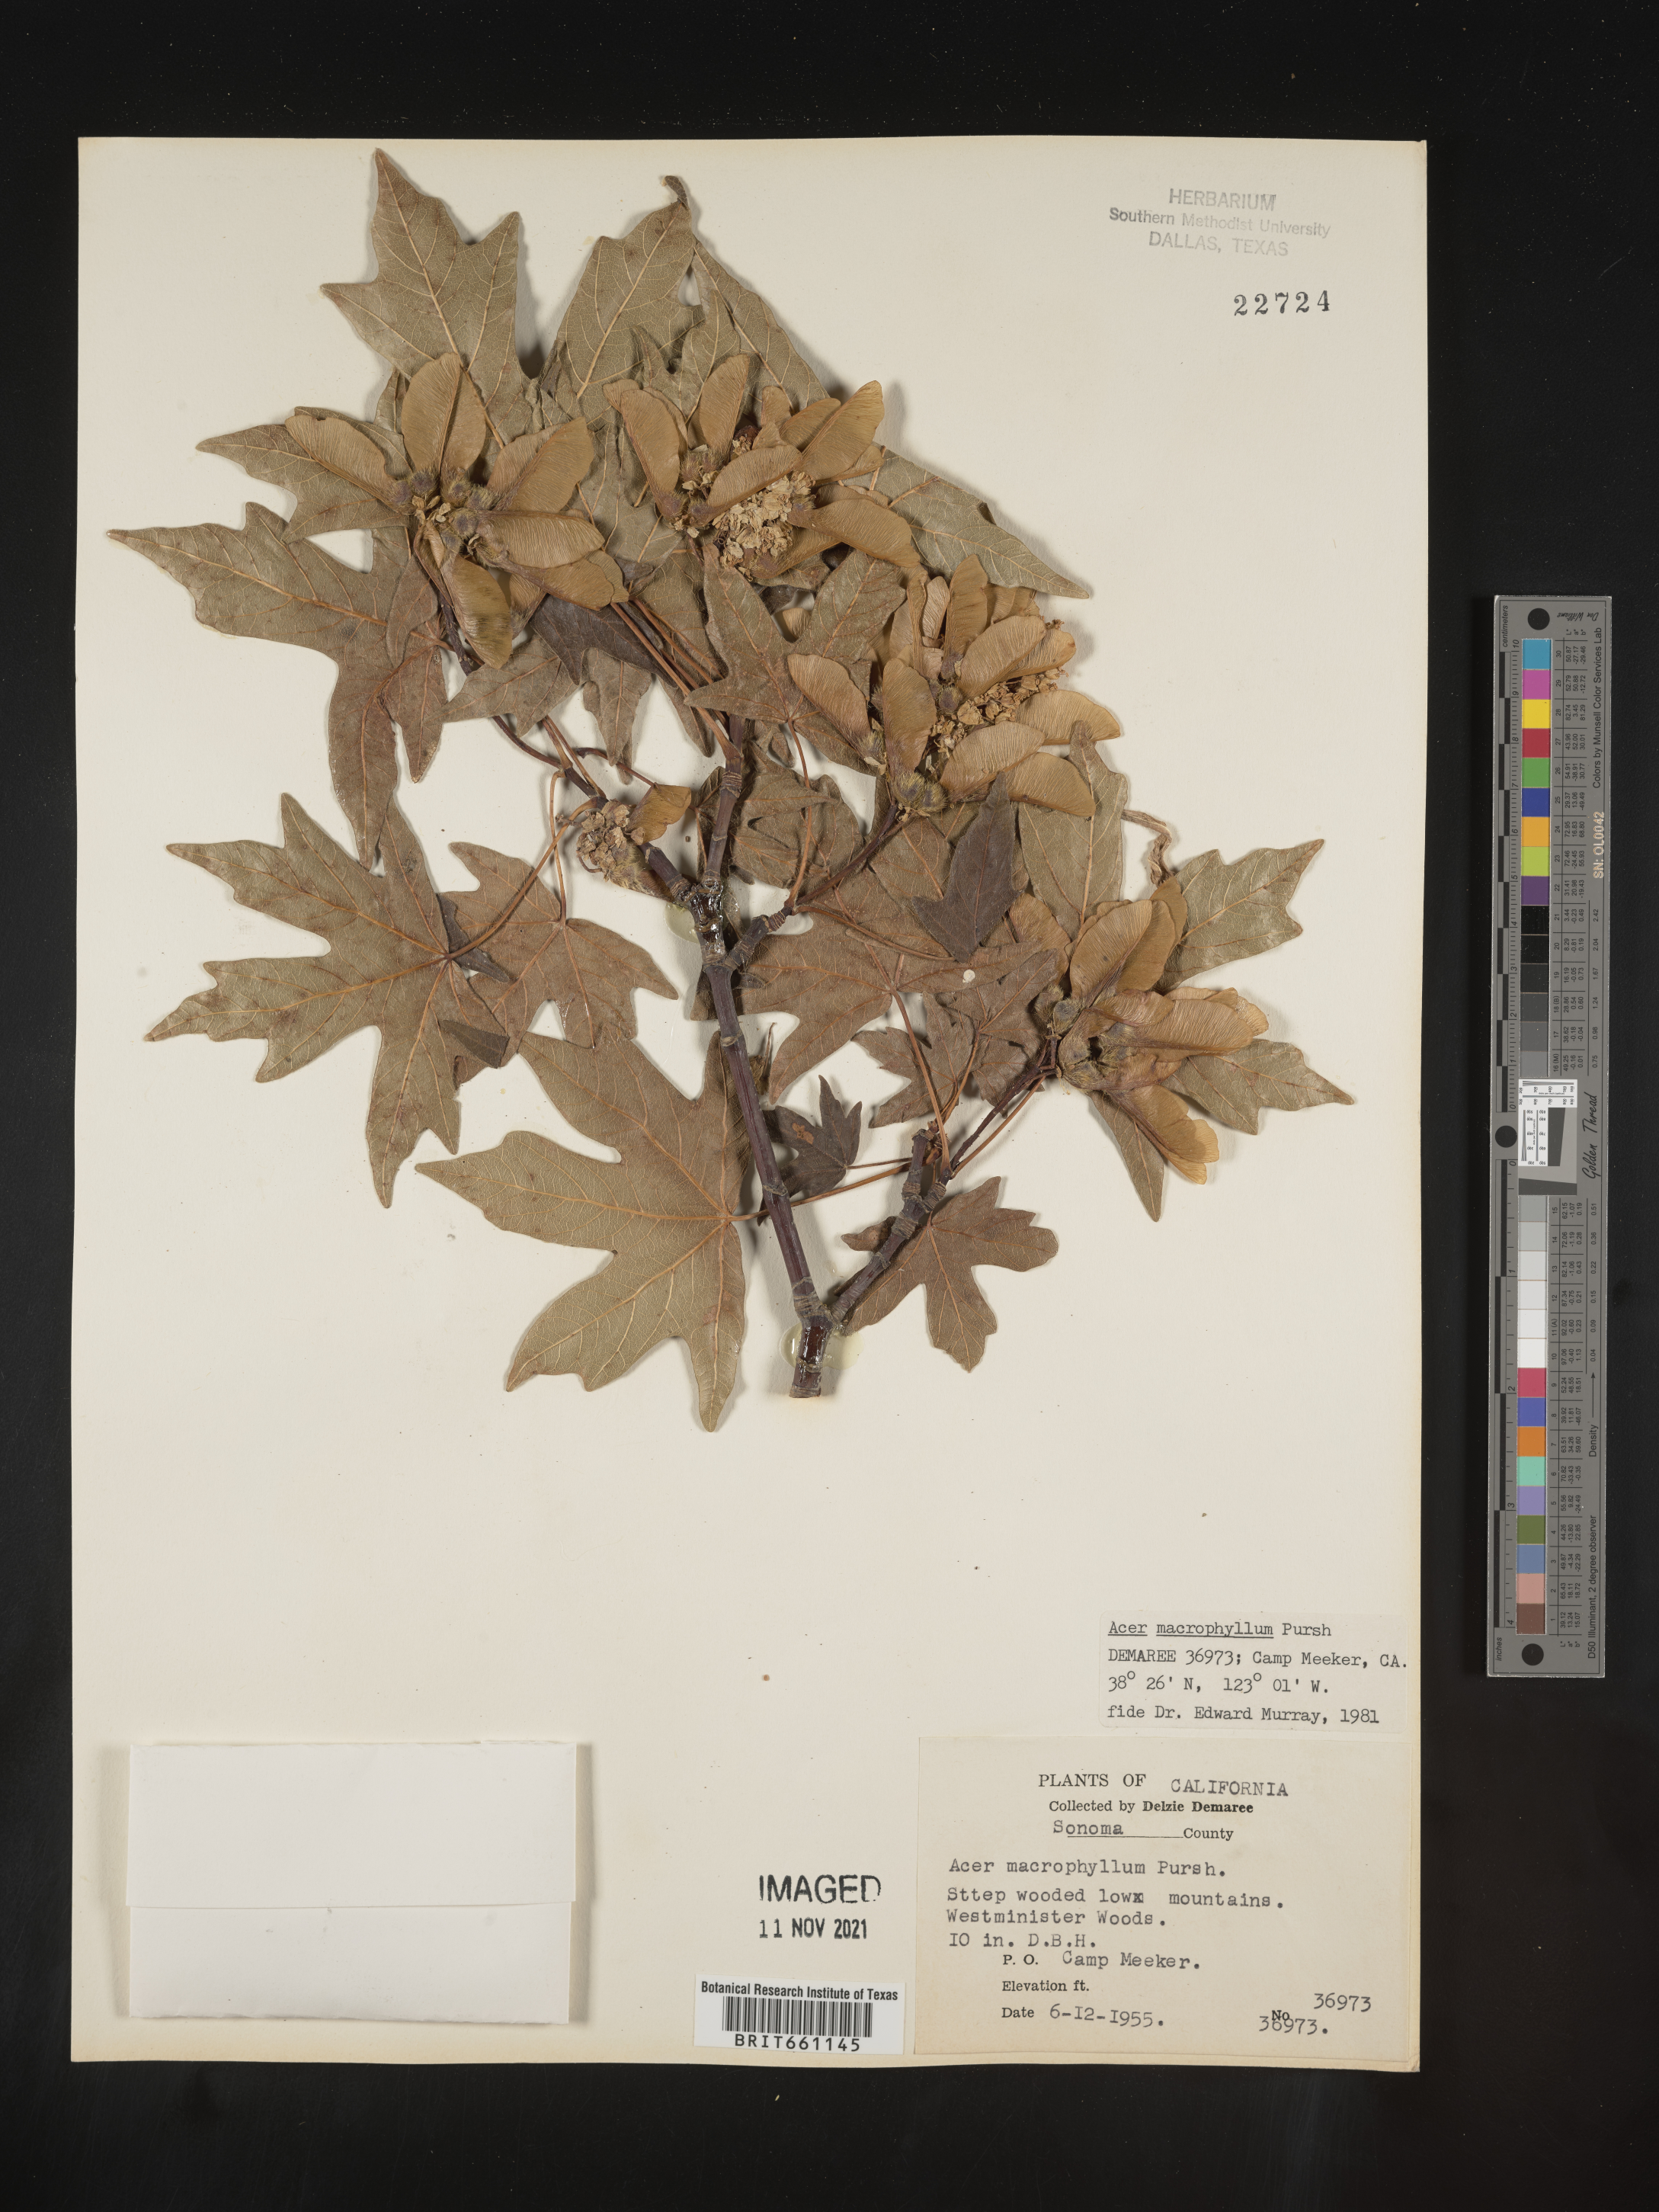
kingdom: Plantae
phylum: Tracheophyta
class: Magnoliopsida
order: Sapindales
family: Sapindaceae
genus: Acer
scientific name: Acer macrophyllum
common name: Oregon maple
